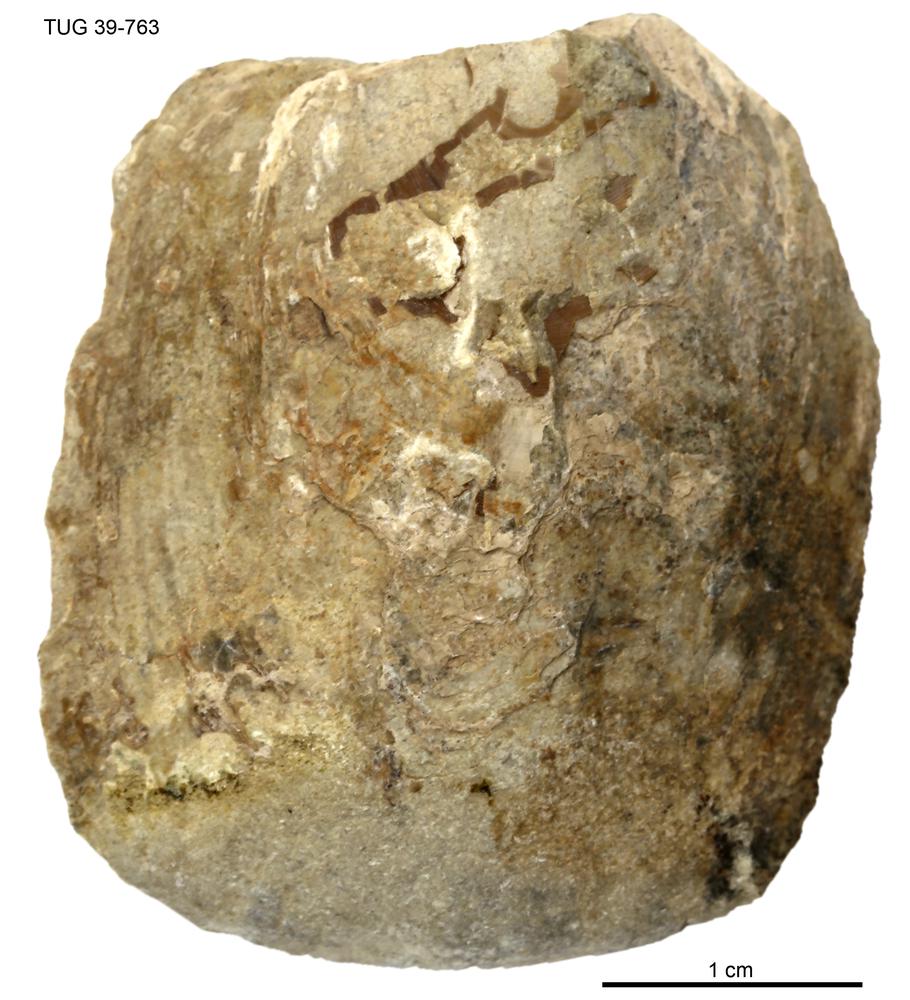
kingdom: Animalia
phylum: Brachiopoda
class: Lingulata
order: Lingulida
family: Pseudolingulidae
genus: Pseudolingula
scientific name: Pseudolingula Crania quadrata
